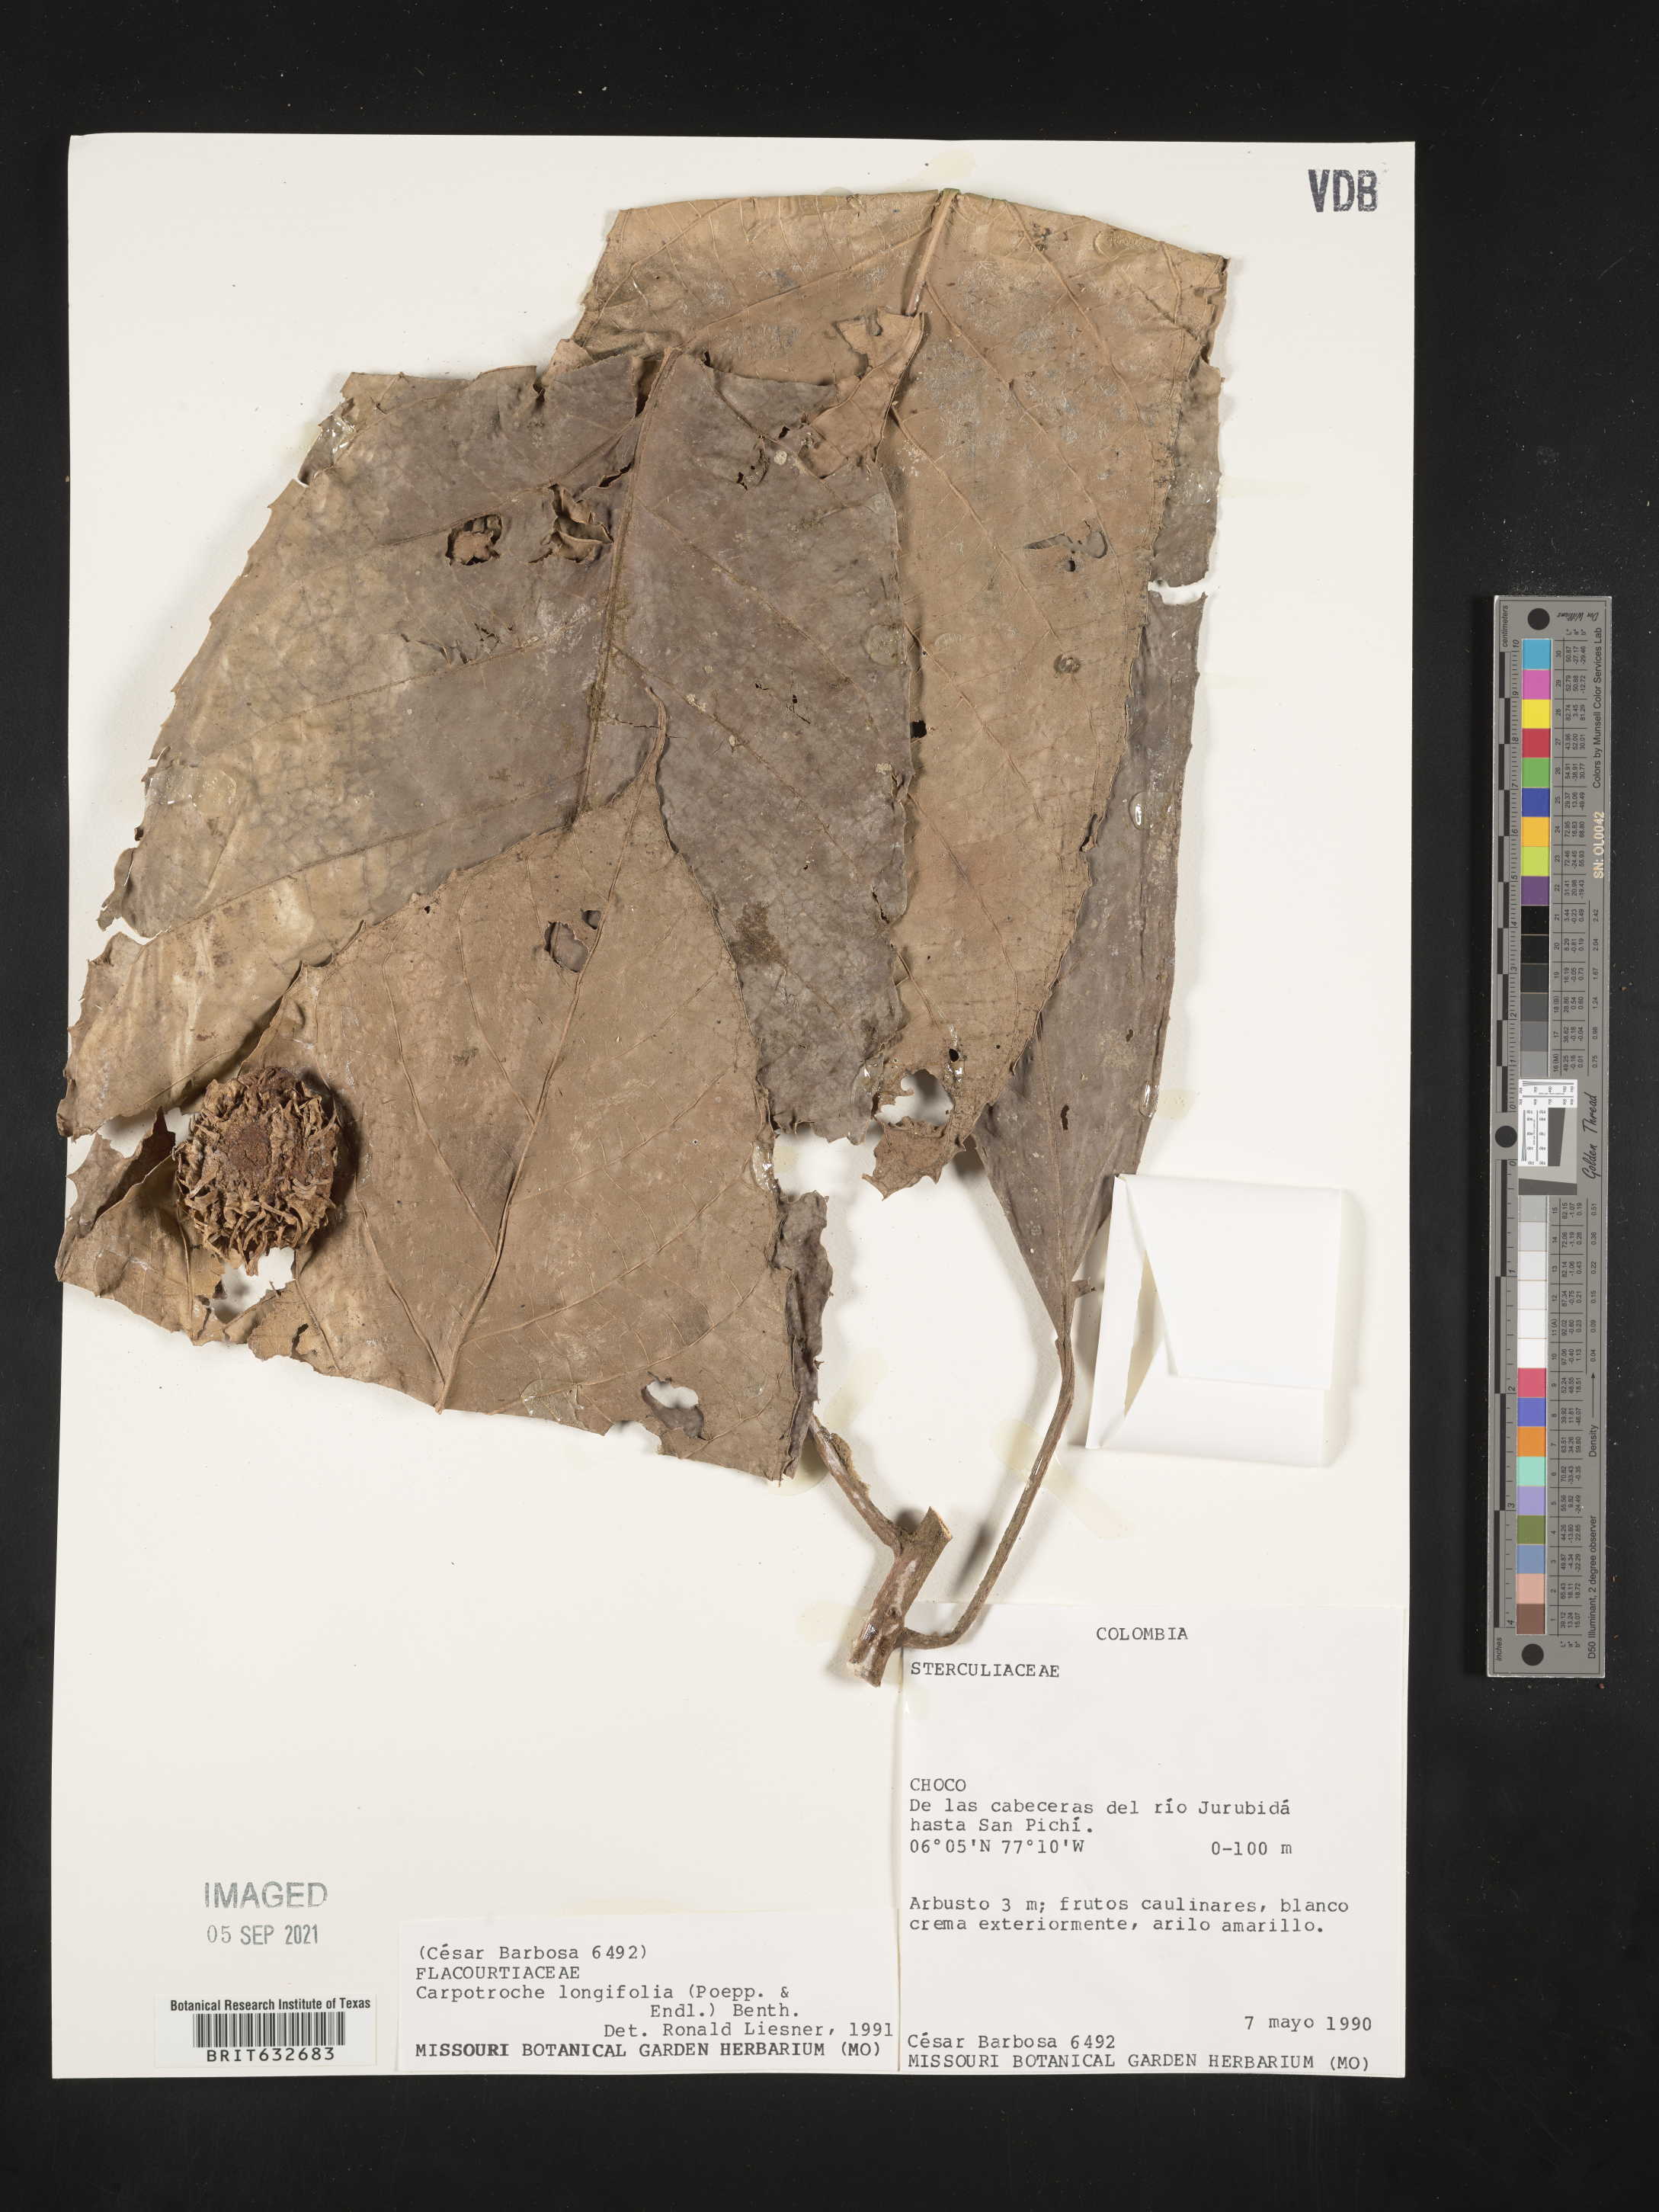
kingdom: Plantae
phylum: Tracheophyta
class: Magnoliopsida
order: Malpighiales
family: Achariaceae
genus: Carpotroche
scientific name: Carpotroche longifolia
